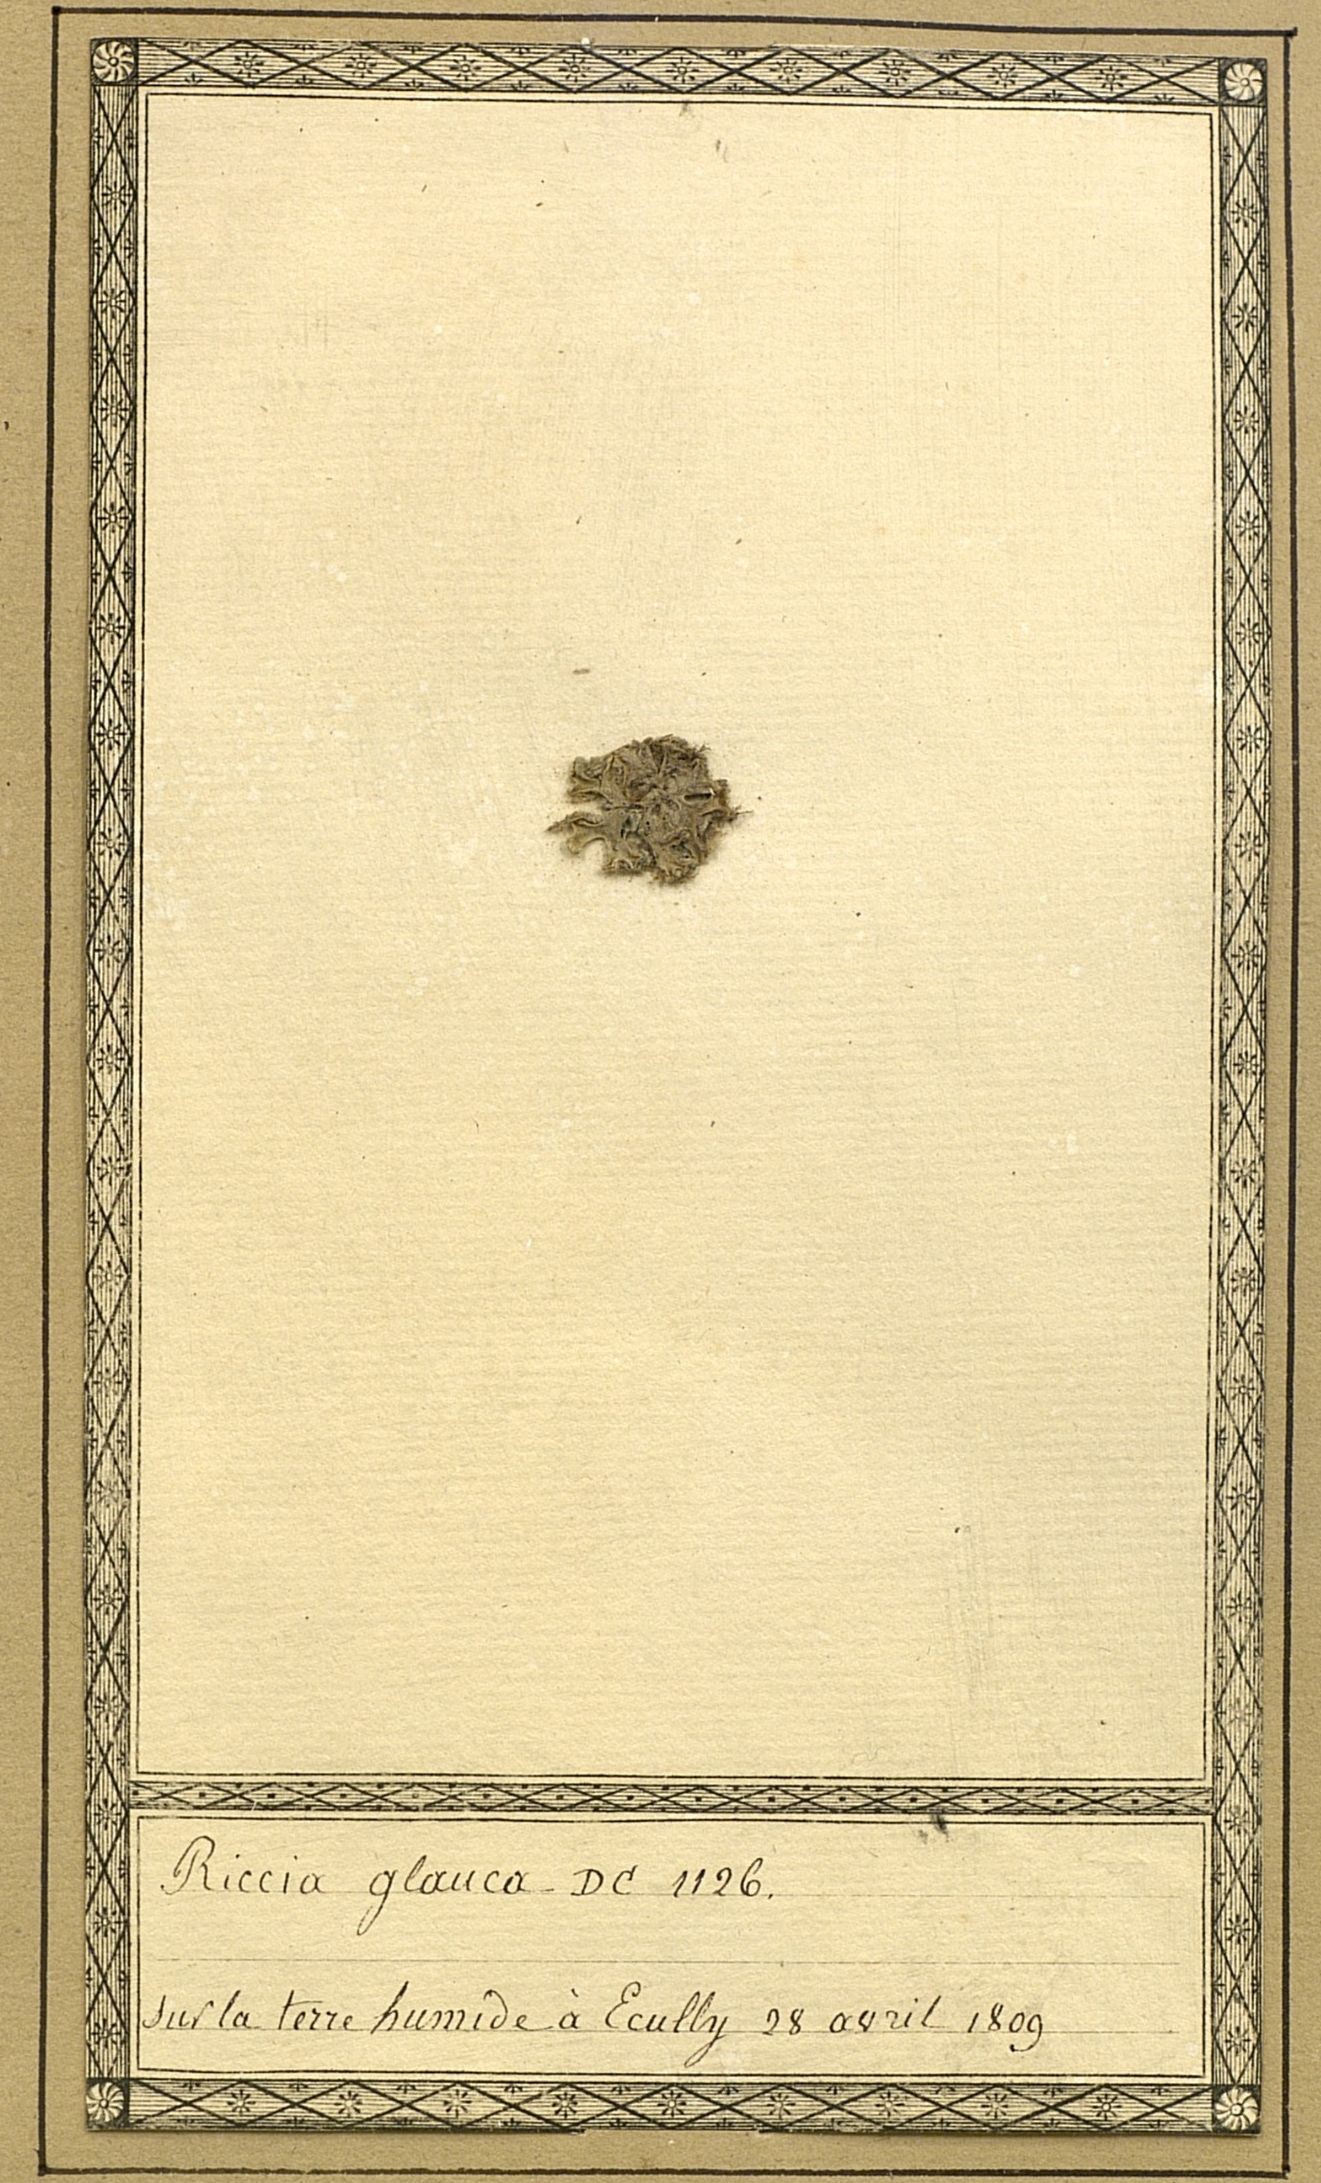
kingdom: Plantae
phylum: Marchantiophyta
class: Marchantiopsida
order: Marchantiales
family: Ricciaceae
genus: Riccia
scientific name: Riccia glauca
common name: Glaucous crystalwort
